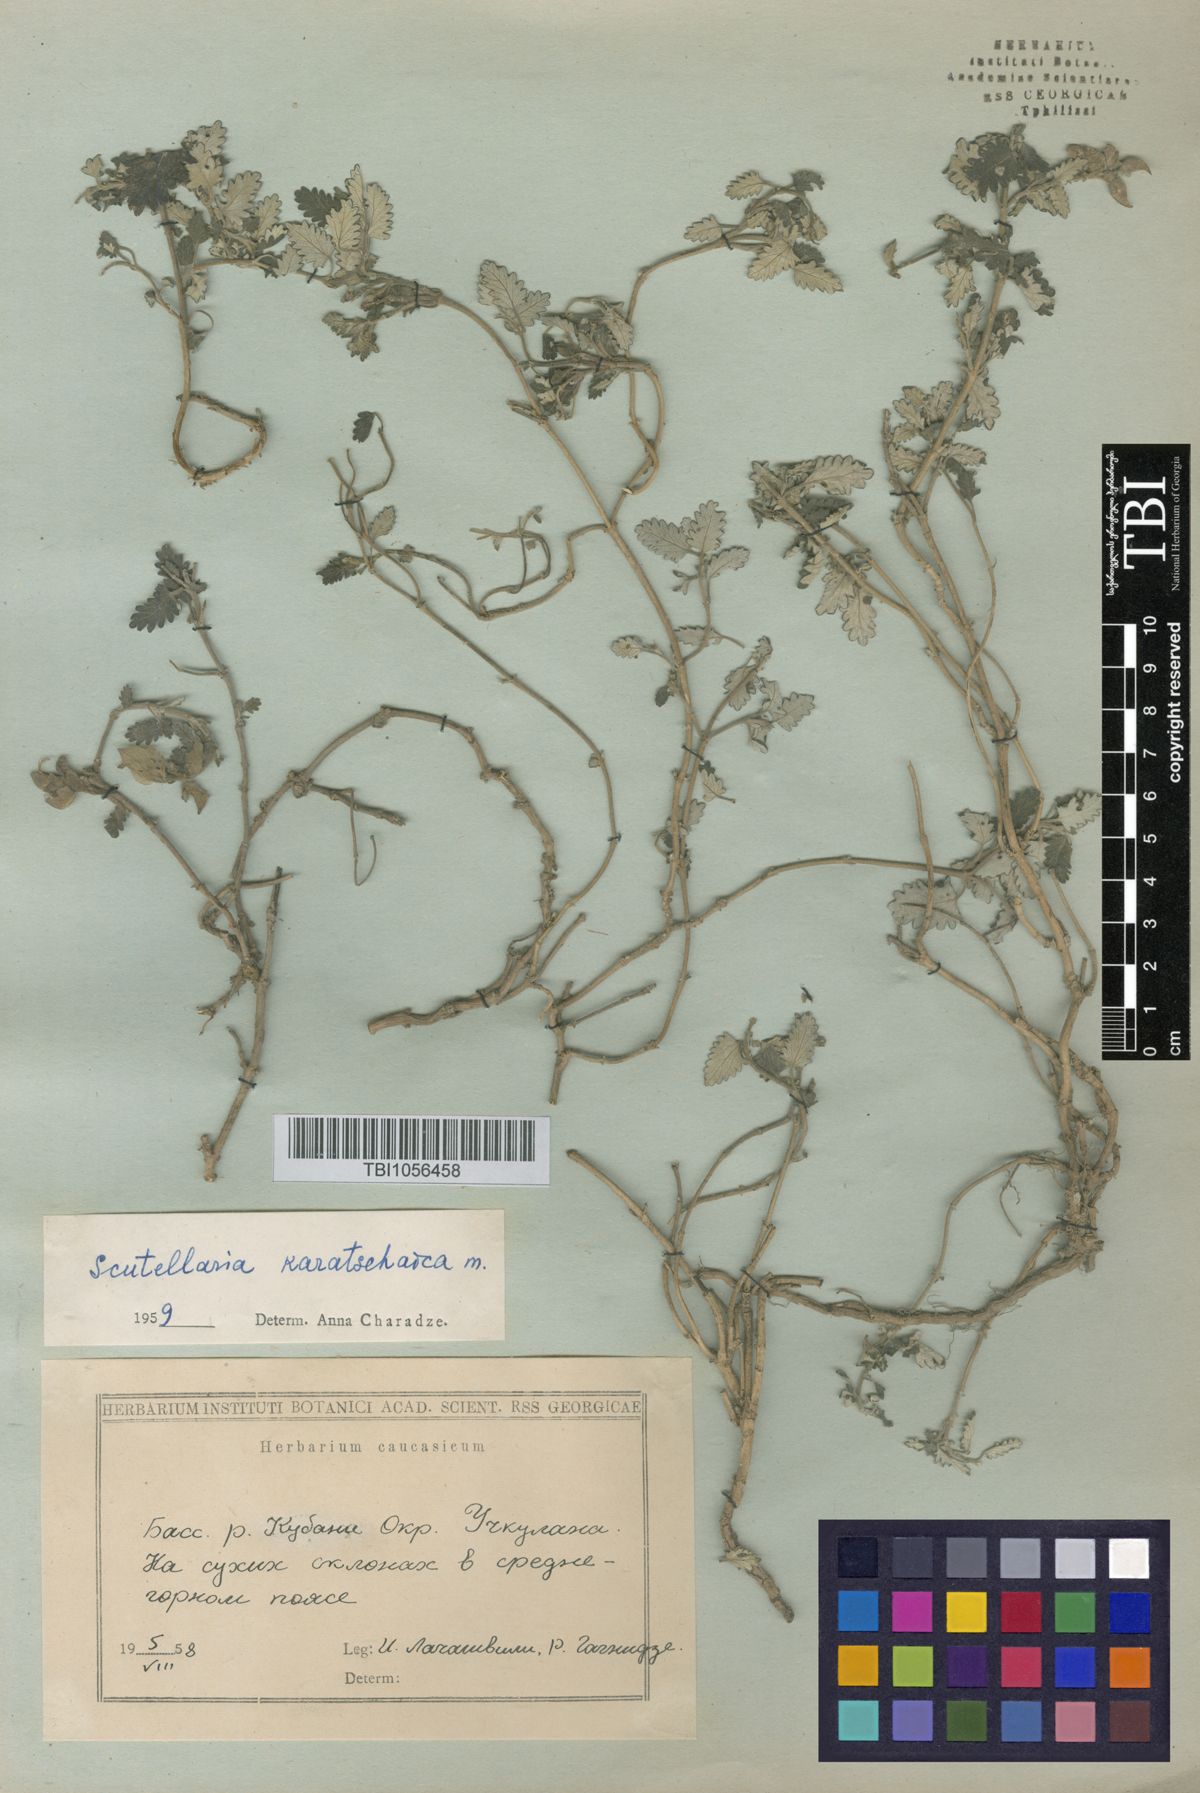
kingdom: Plantae
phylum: Tracheophyta
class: Magnoliopsida
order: Lamiales
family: Lamiaceae
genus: Scutellaria
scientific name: Scutellaria orientalis
